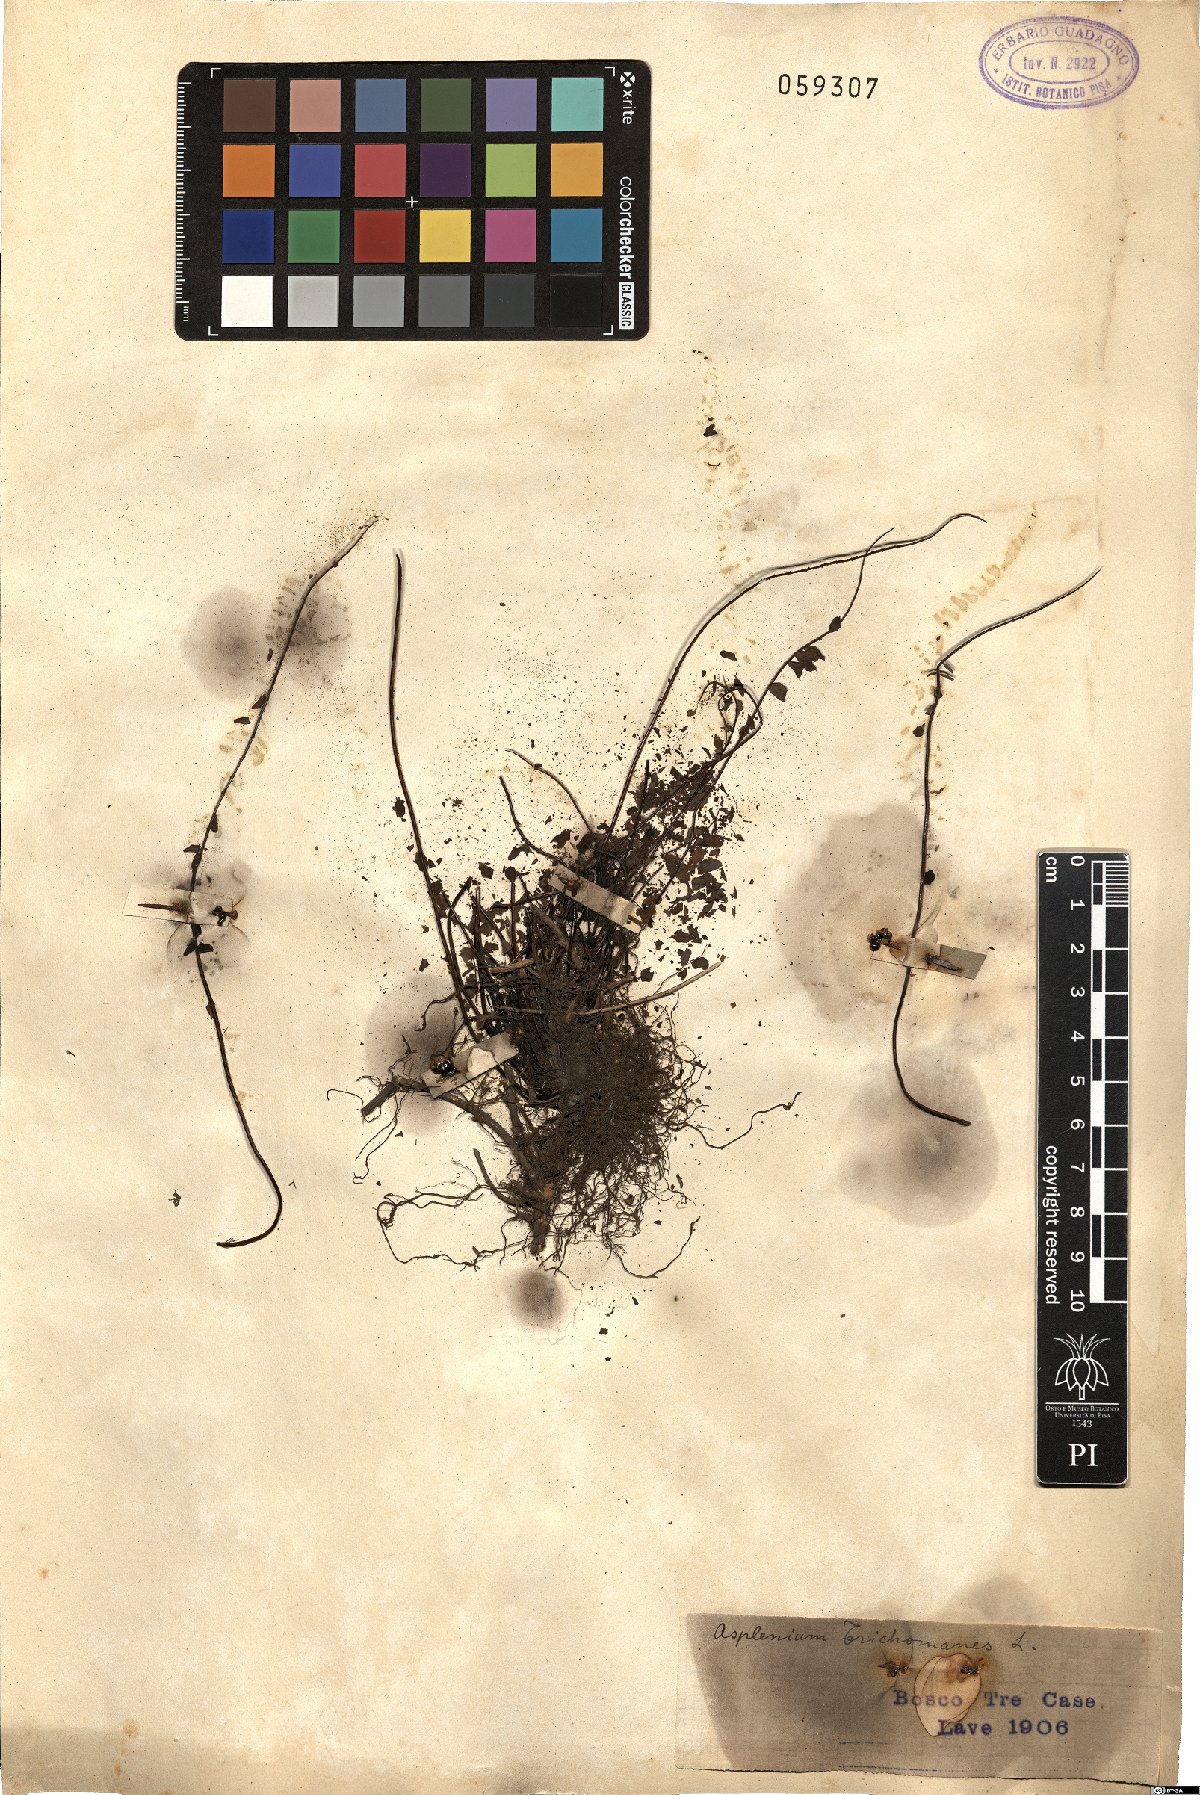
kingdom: Plantae
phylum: Tracheophyta
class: Polypodiopsida
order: Polypodiales
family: Aspleniaceae
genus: Asplenium
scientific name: Asplenium trichomanes
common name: Maidenhair spleenwort
